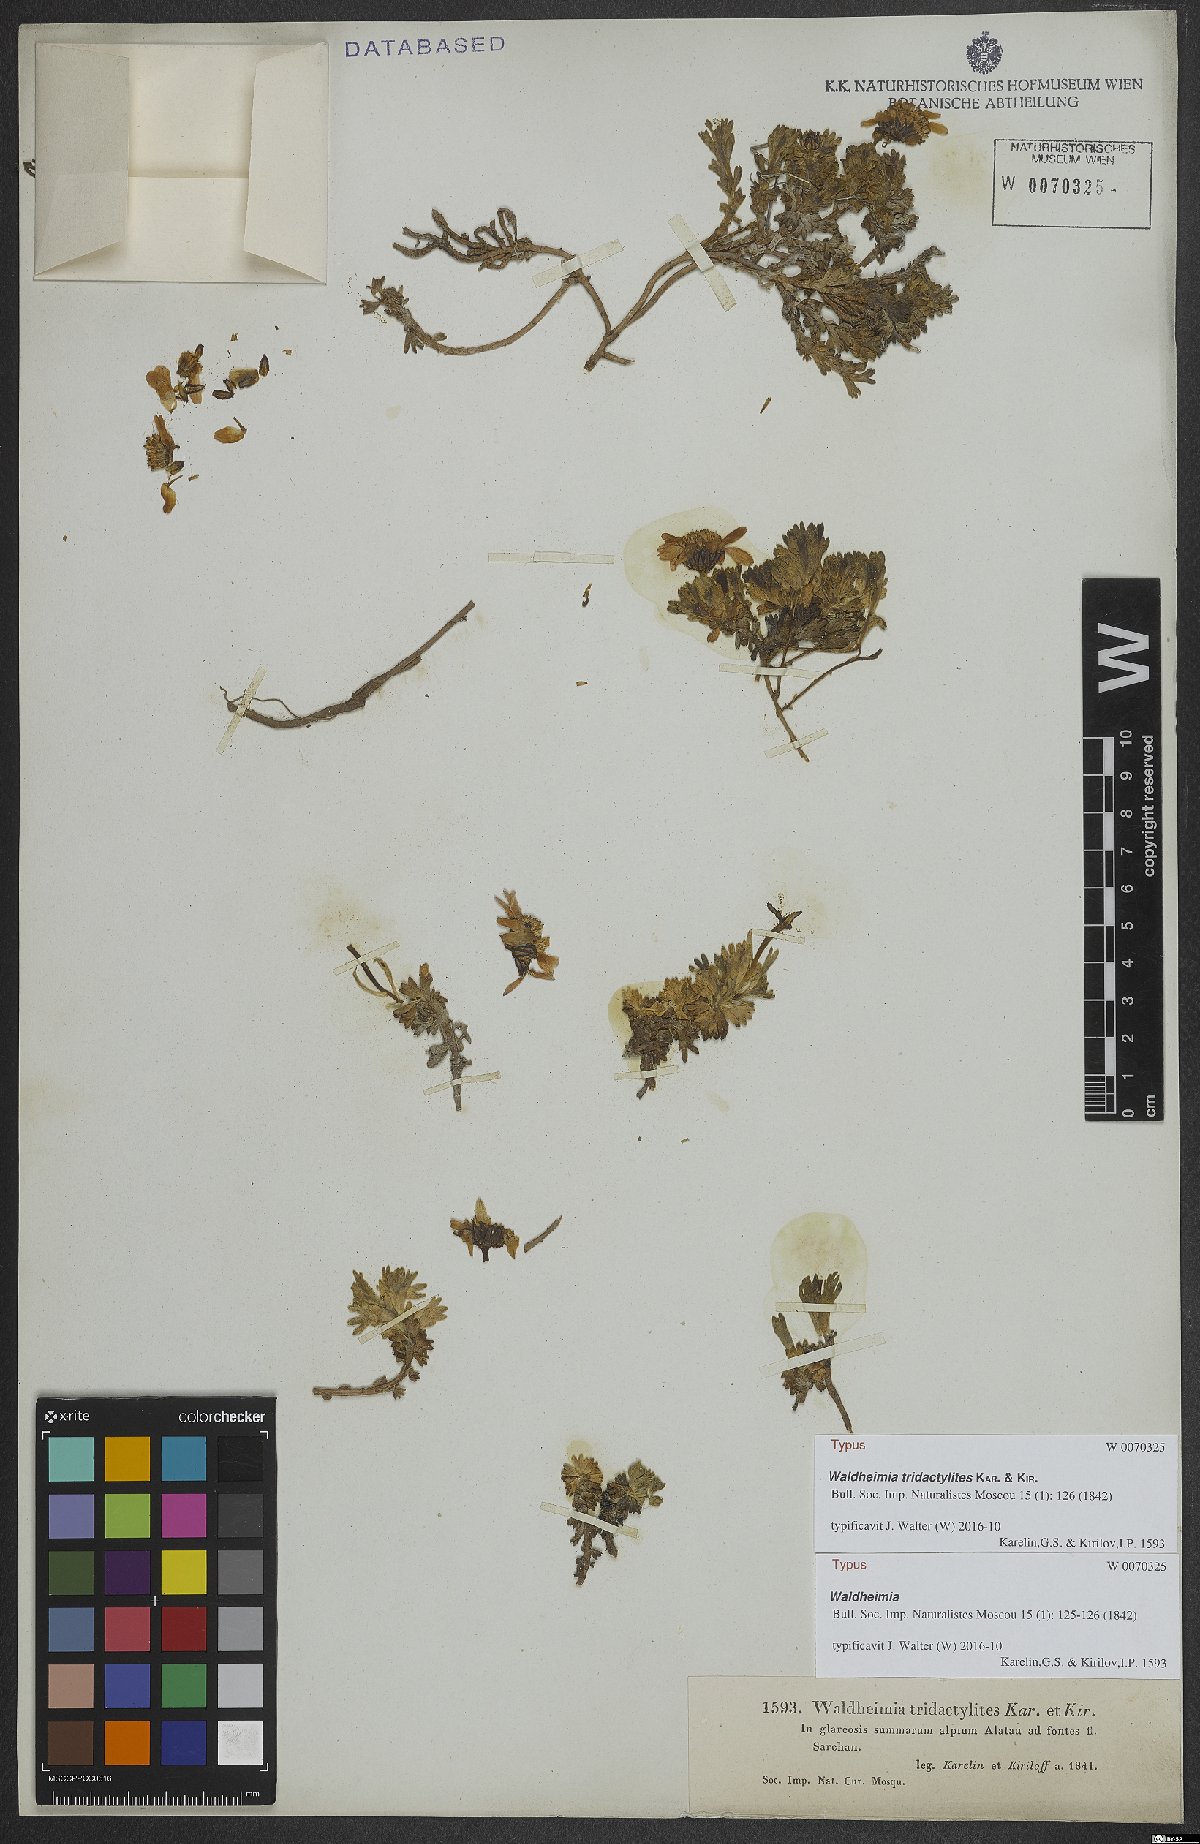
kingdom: Plantae
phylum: Tracheophyta
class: Magnoliopsida
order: Asterales
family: Asteraceae
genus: Allardia
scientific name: Allardia tridactylites
